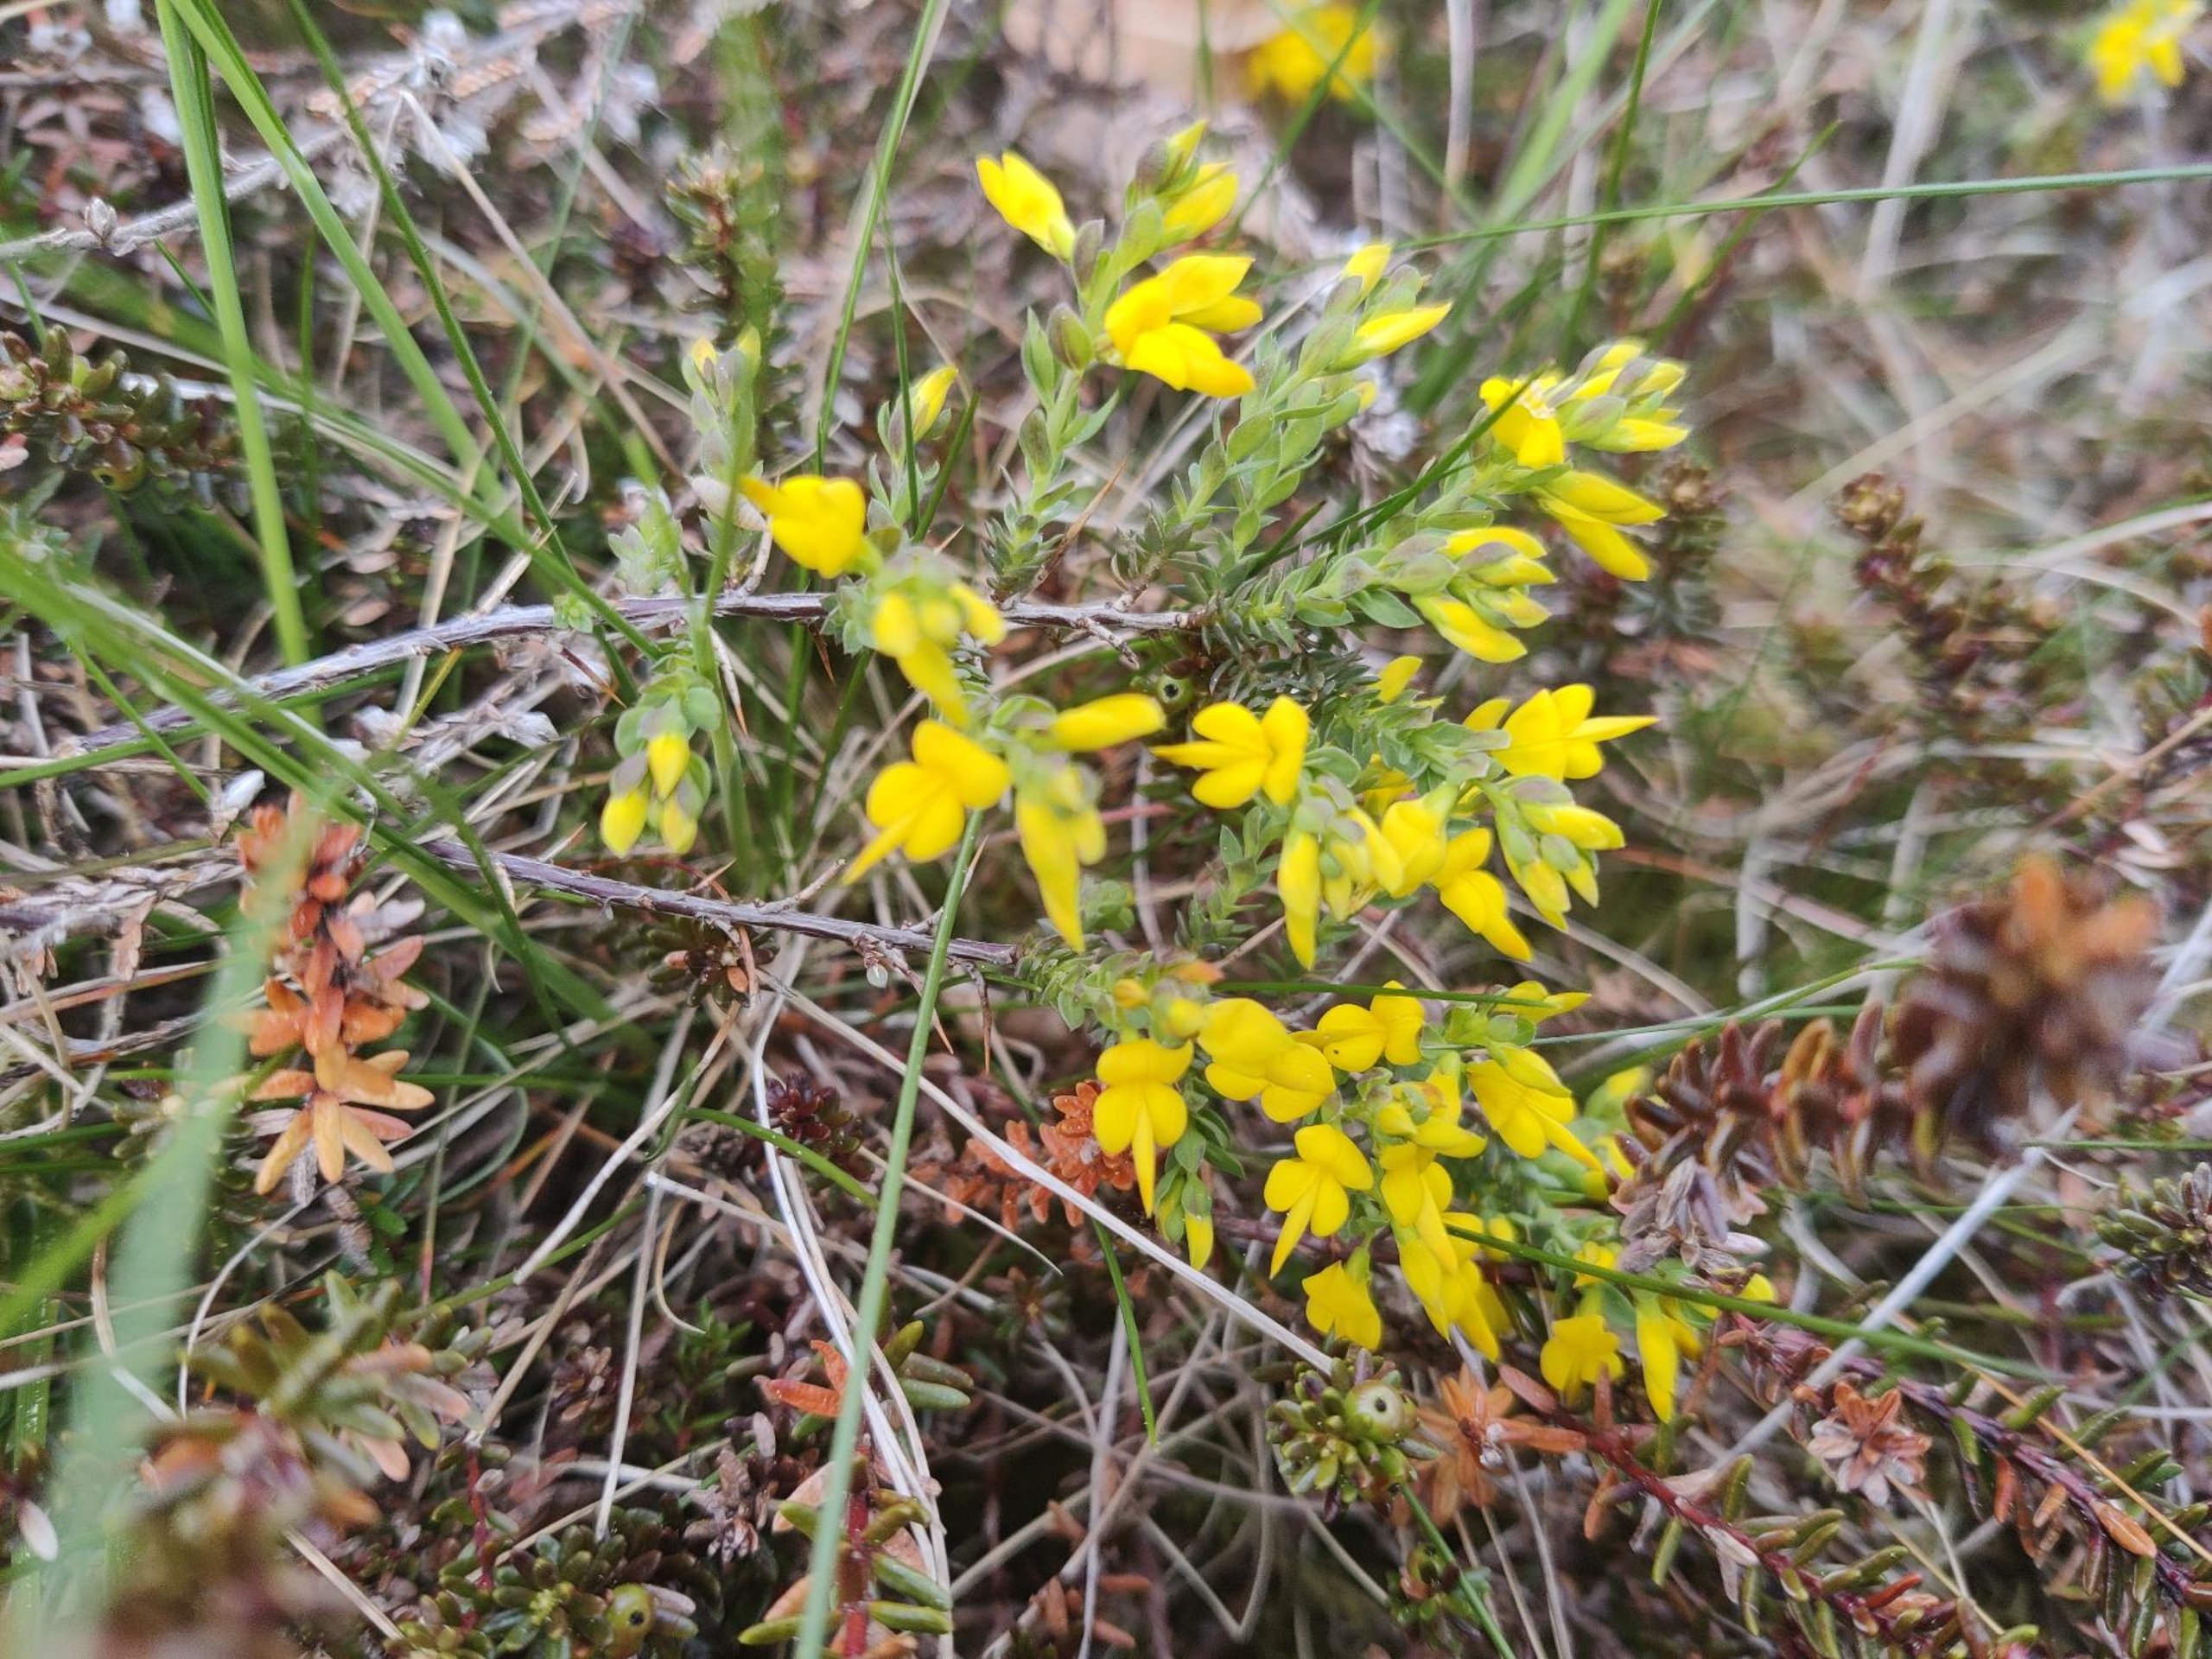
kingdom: Plantae
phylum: Tracheophyta
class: Magnoliopsida
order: Fabales
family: Fabaceae
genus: Genista
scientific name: Genista anglica
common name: Engelsk visse
